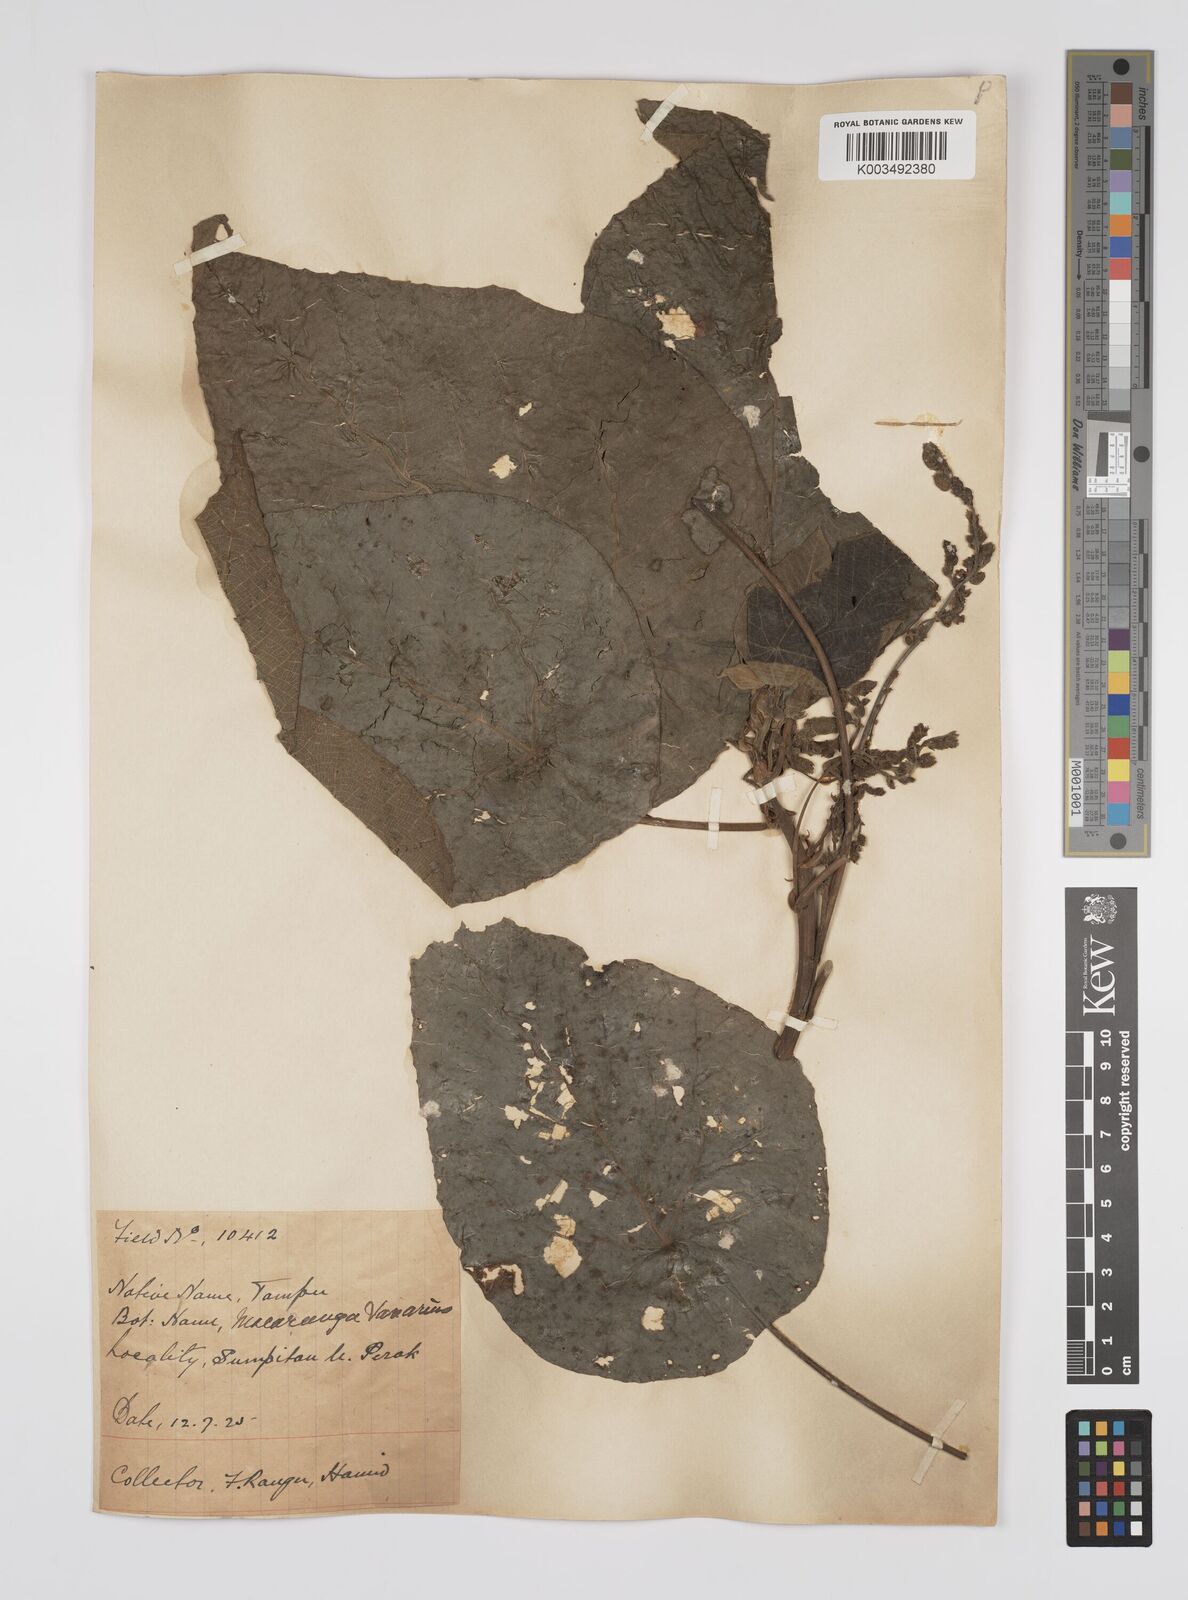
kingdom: Plantae
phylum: Tracheophyta
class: Magnoliopsida
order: Malpighiales
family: Euphorbiaceae
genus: Macaranga
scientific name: Macaranga tanarius
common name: Parasol leaf tree
